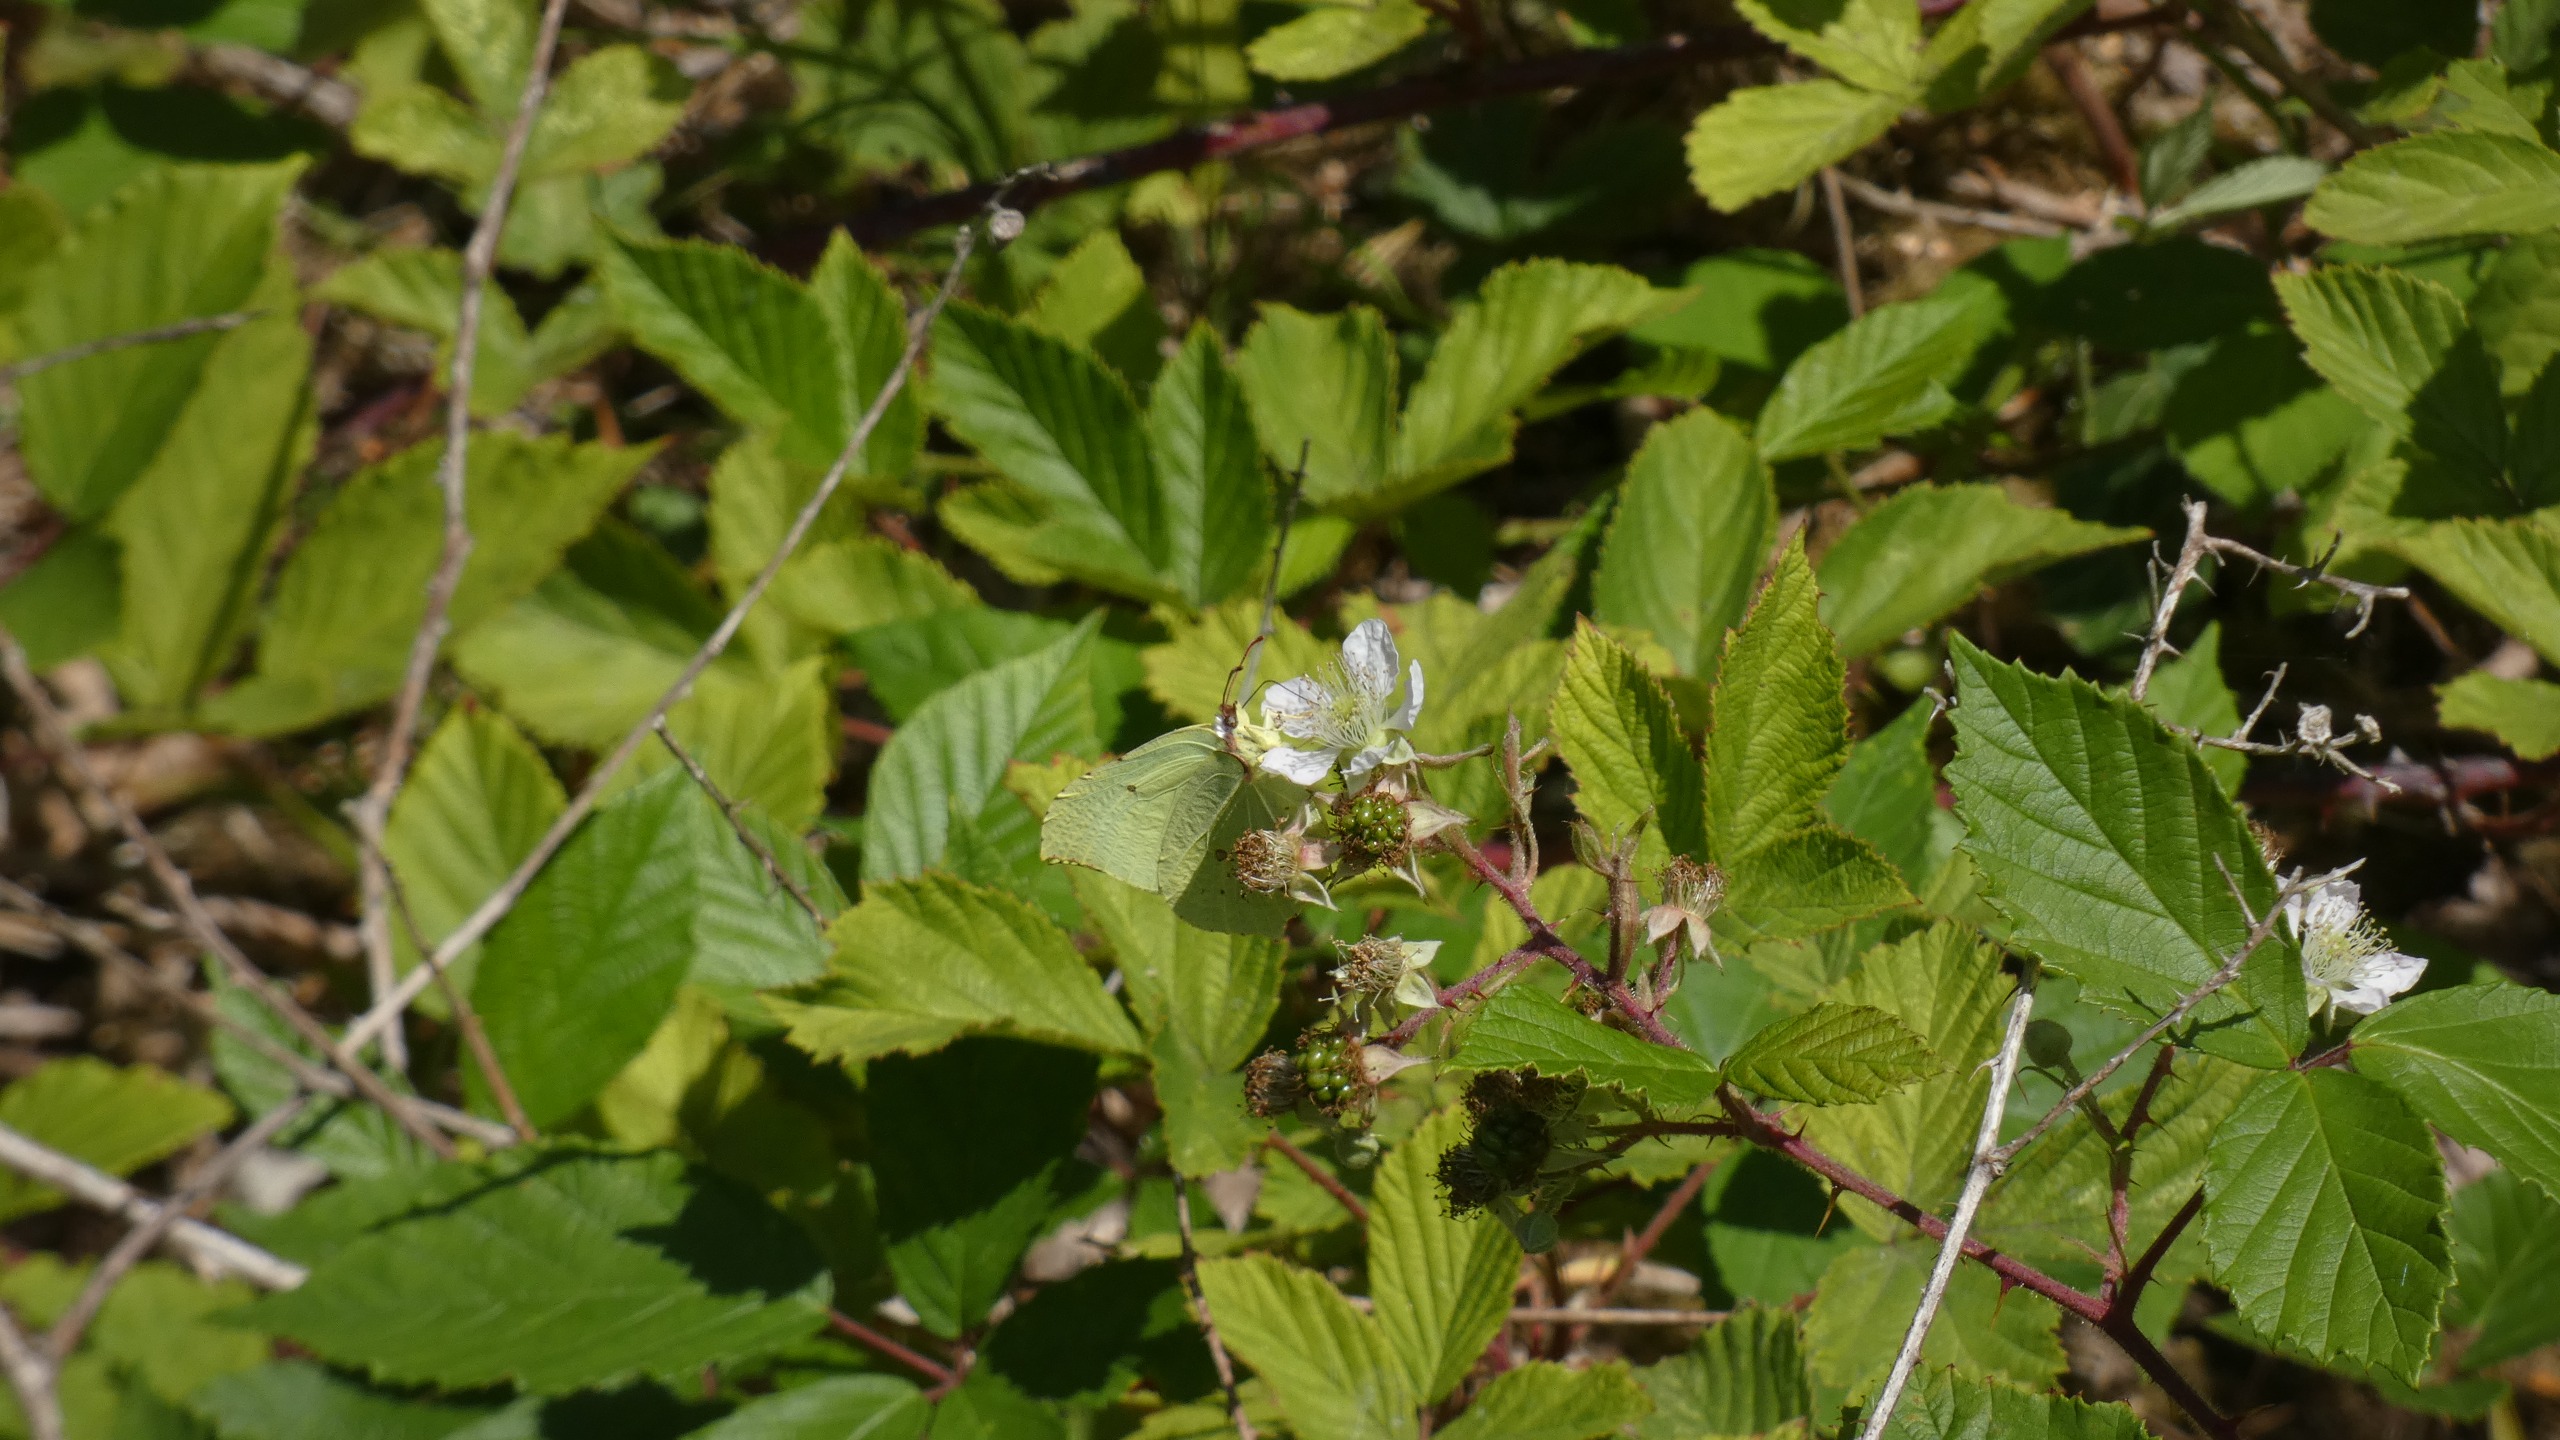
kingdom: Animalia
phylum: Arthropoda
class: Insecta
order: Lepidoptera
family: Pieridae
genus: Gonepteryx
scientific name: Gonepteryx rhamni
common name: Citronsommerfugl
